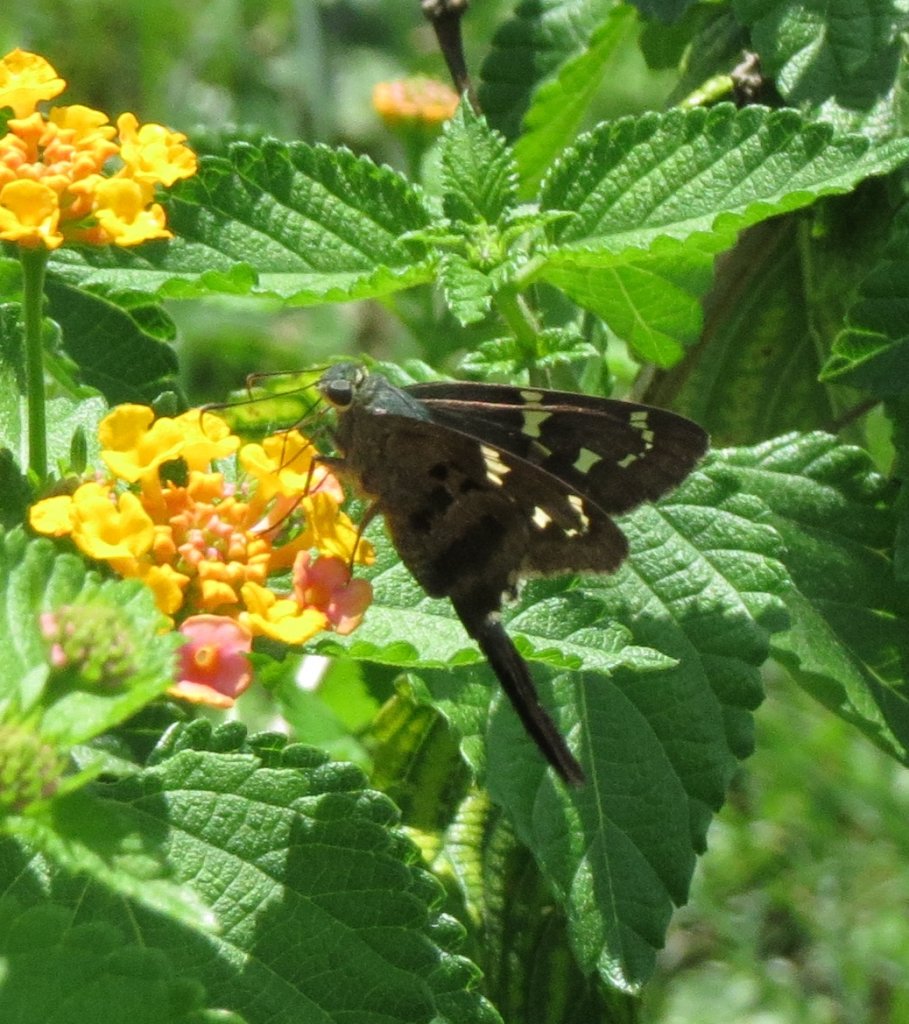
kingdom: Animalia
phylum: Arthropoda
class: Insecta
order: Lepidoptera
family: Hesperiidae
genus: Urbanus
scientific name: Urbanus proteus
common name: Long-tailed Skipper
